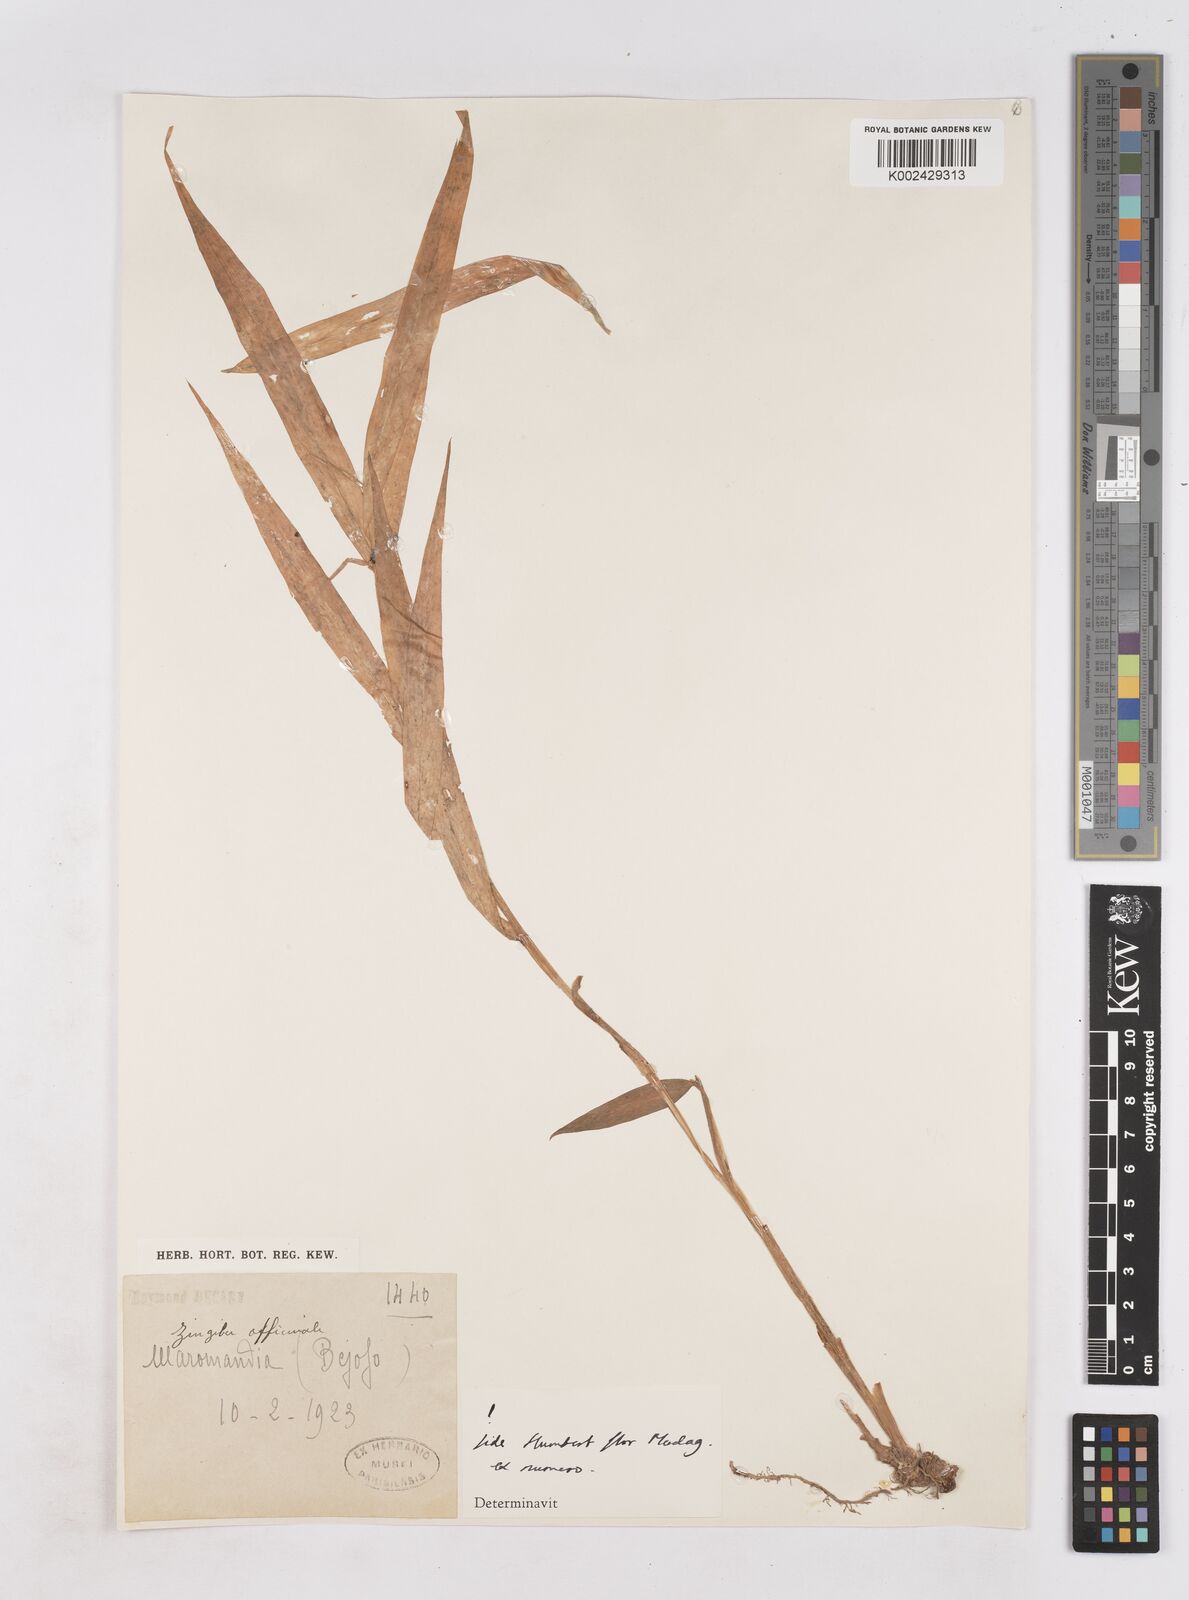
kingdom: Plantae
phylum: Tracheophyta
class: Liliopsida
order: Zingiberales
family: Zingiberaceae
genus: Zingiber
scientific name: Zingiber
